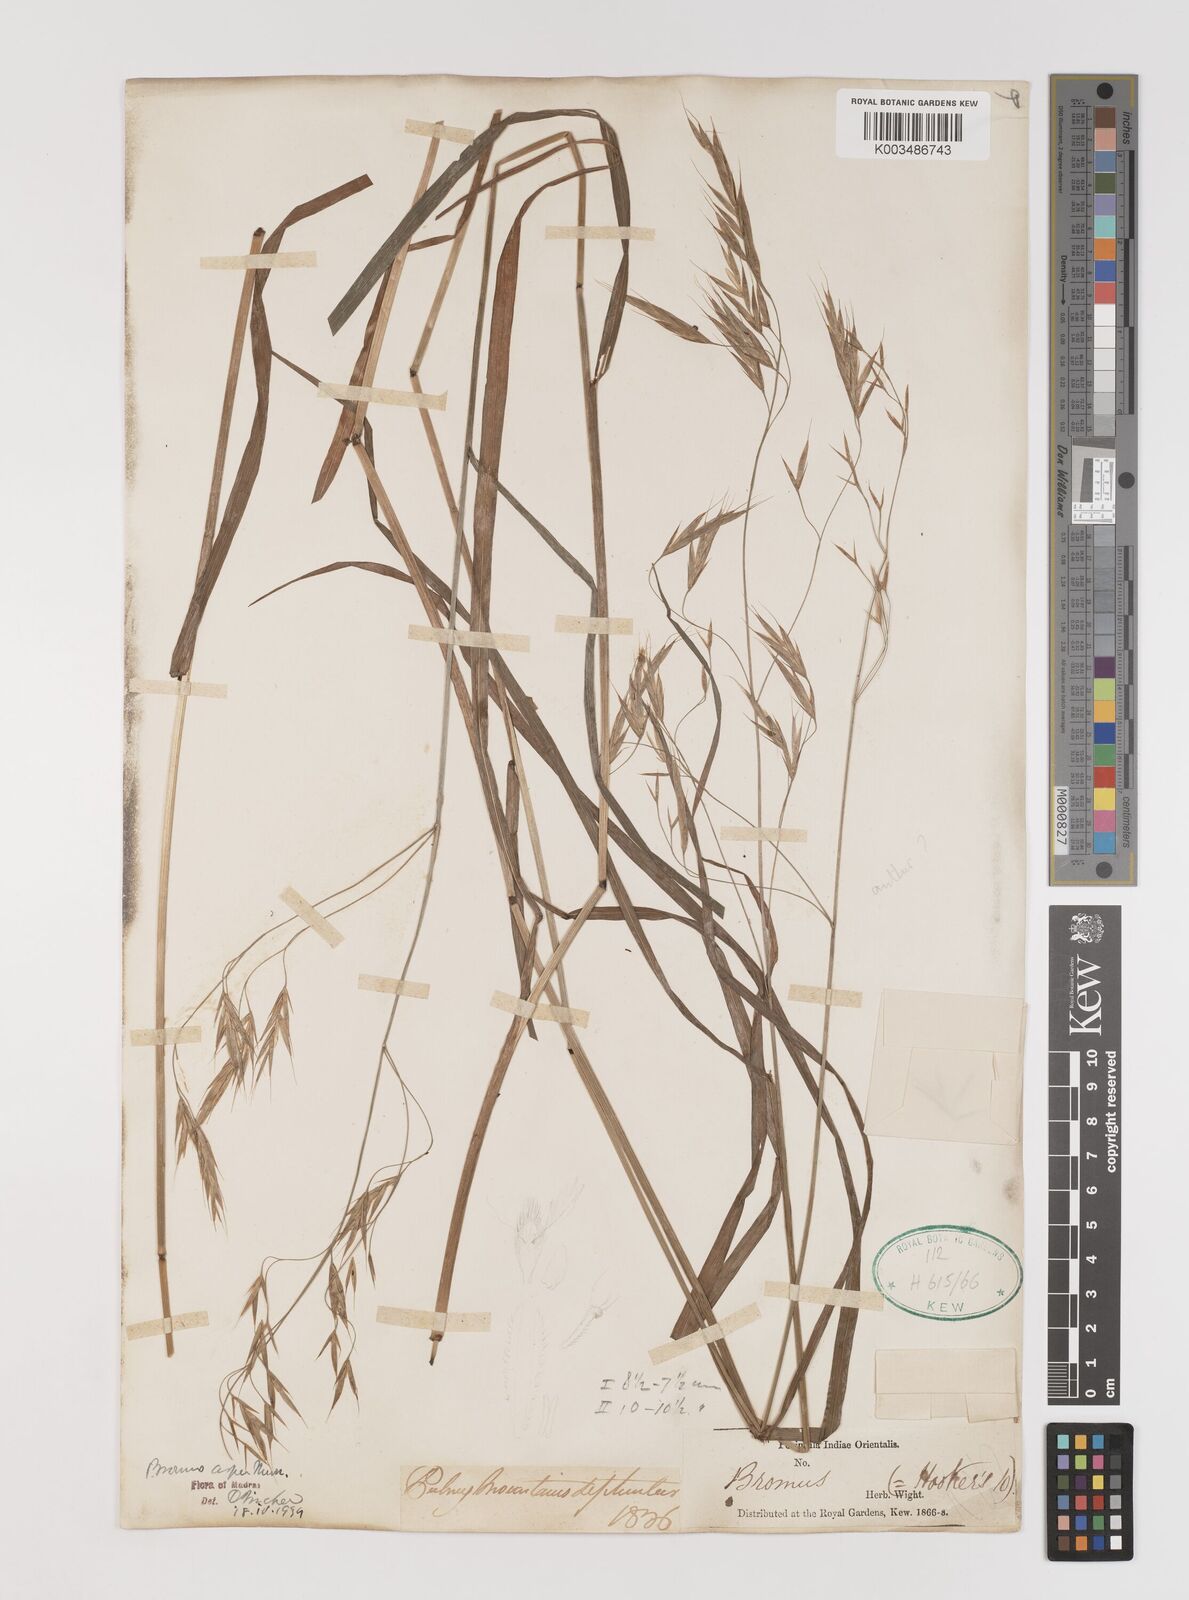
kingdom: Plantae
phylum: Tracheophyta
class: Liliopsida
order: Poales
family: Poaceae
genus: Brachypodium
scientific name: Brachypodium retusum
